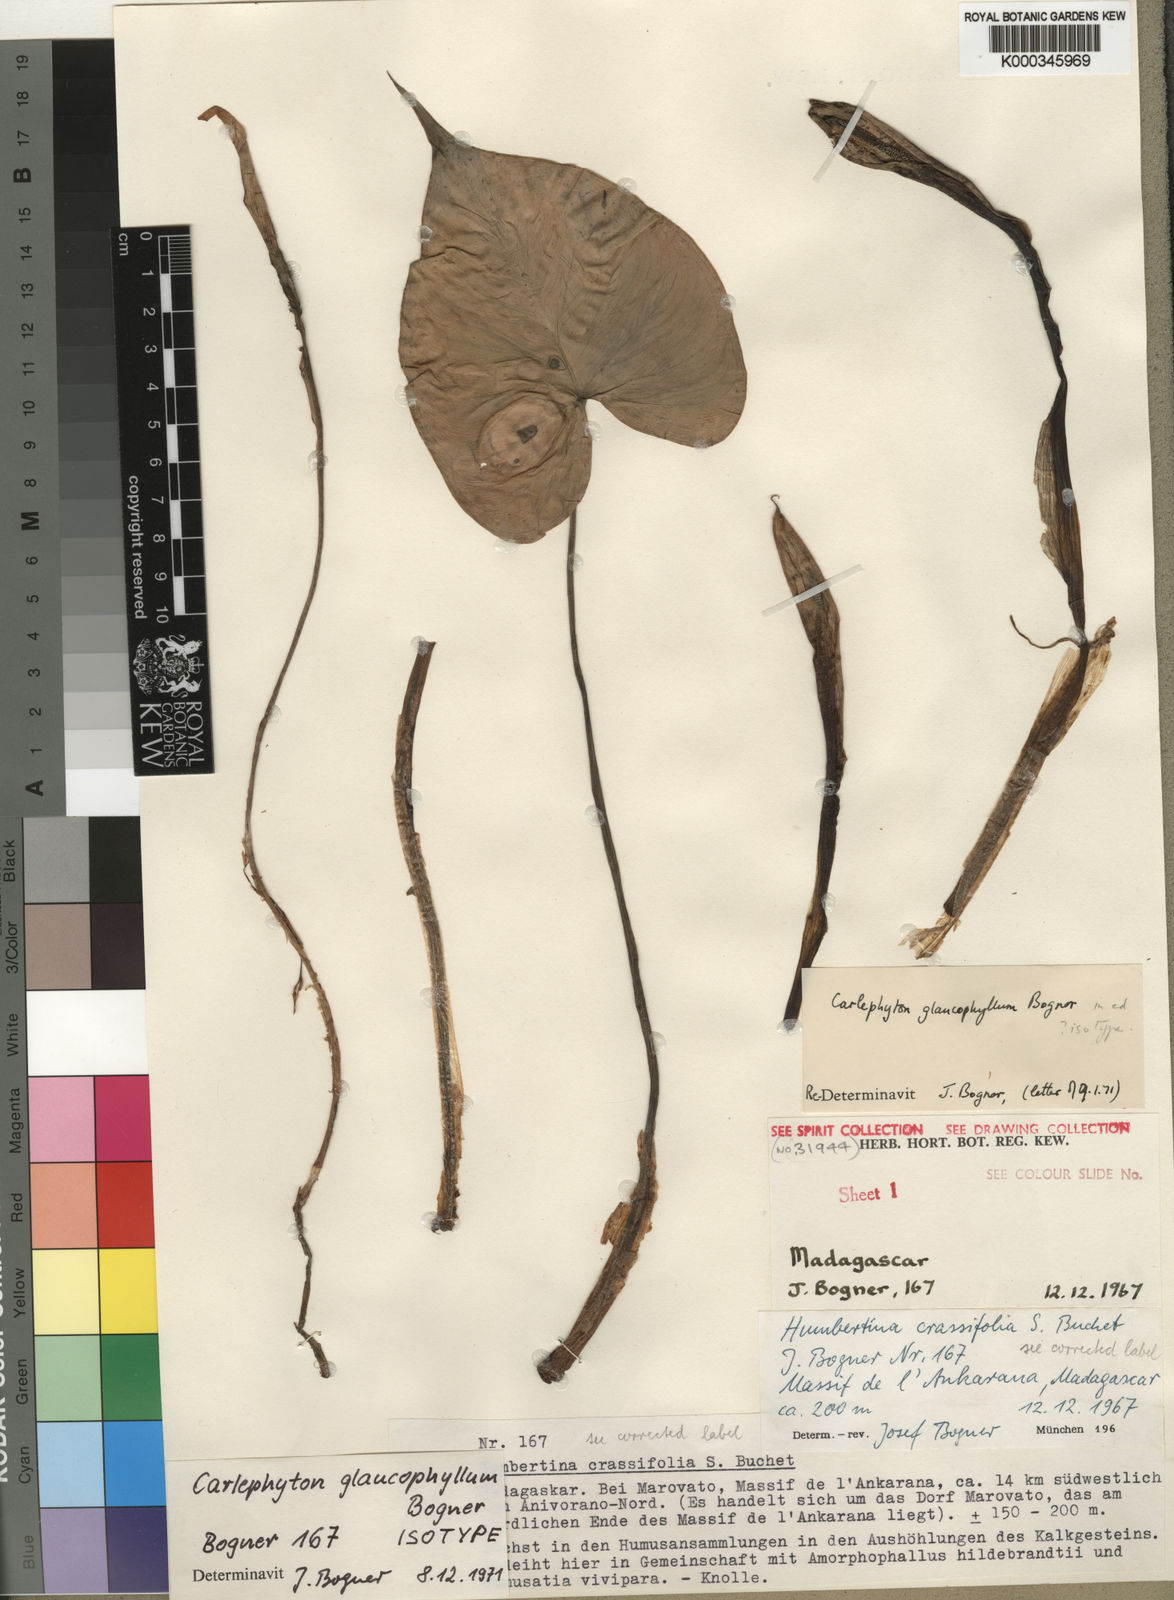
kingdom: Plantae
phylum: Tracheophyta
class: Liliopsida
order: Alismatales
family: Araceae
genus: Carlephyton
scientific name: Carlephyton glaucophyllum
